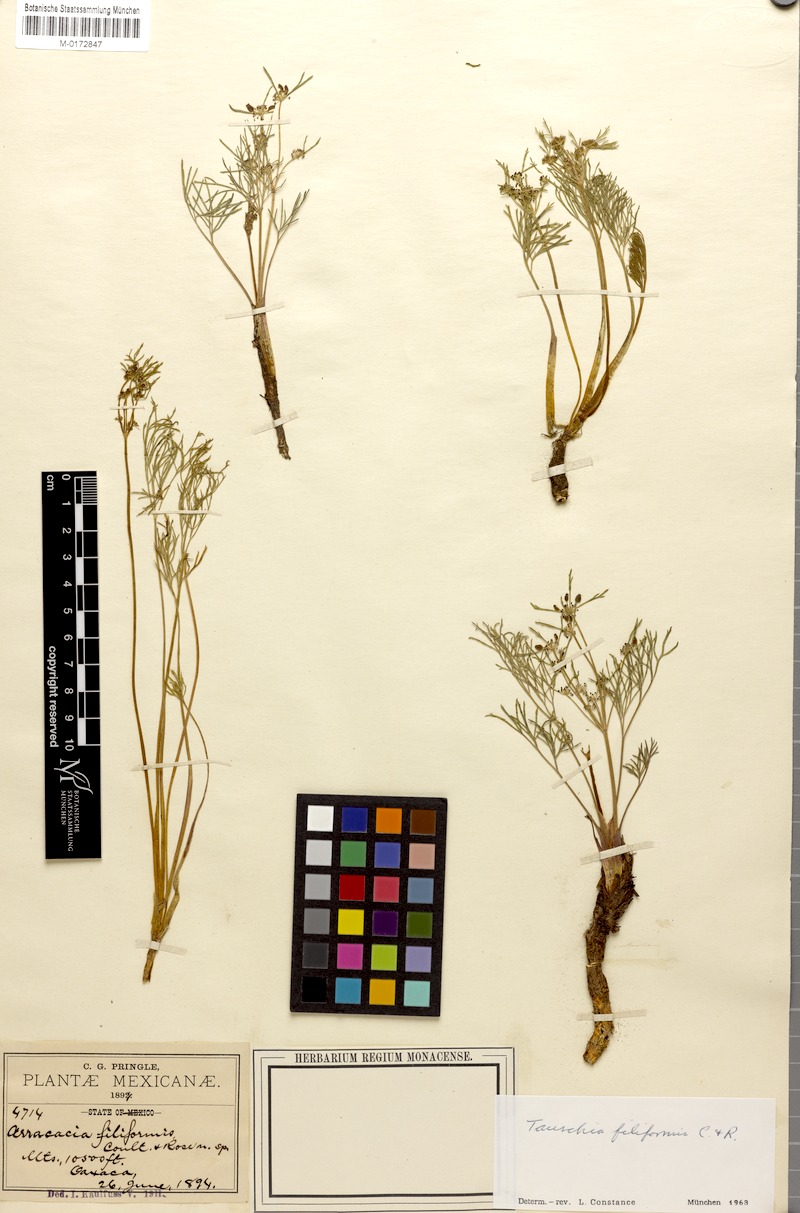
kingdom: Plantae
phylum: Tracheophyta
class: Magnoliopsida
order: Apiales
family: Apiaceae
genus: Tauschia
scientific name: Tauschia filiformis
